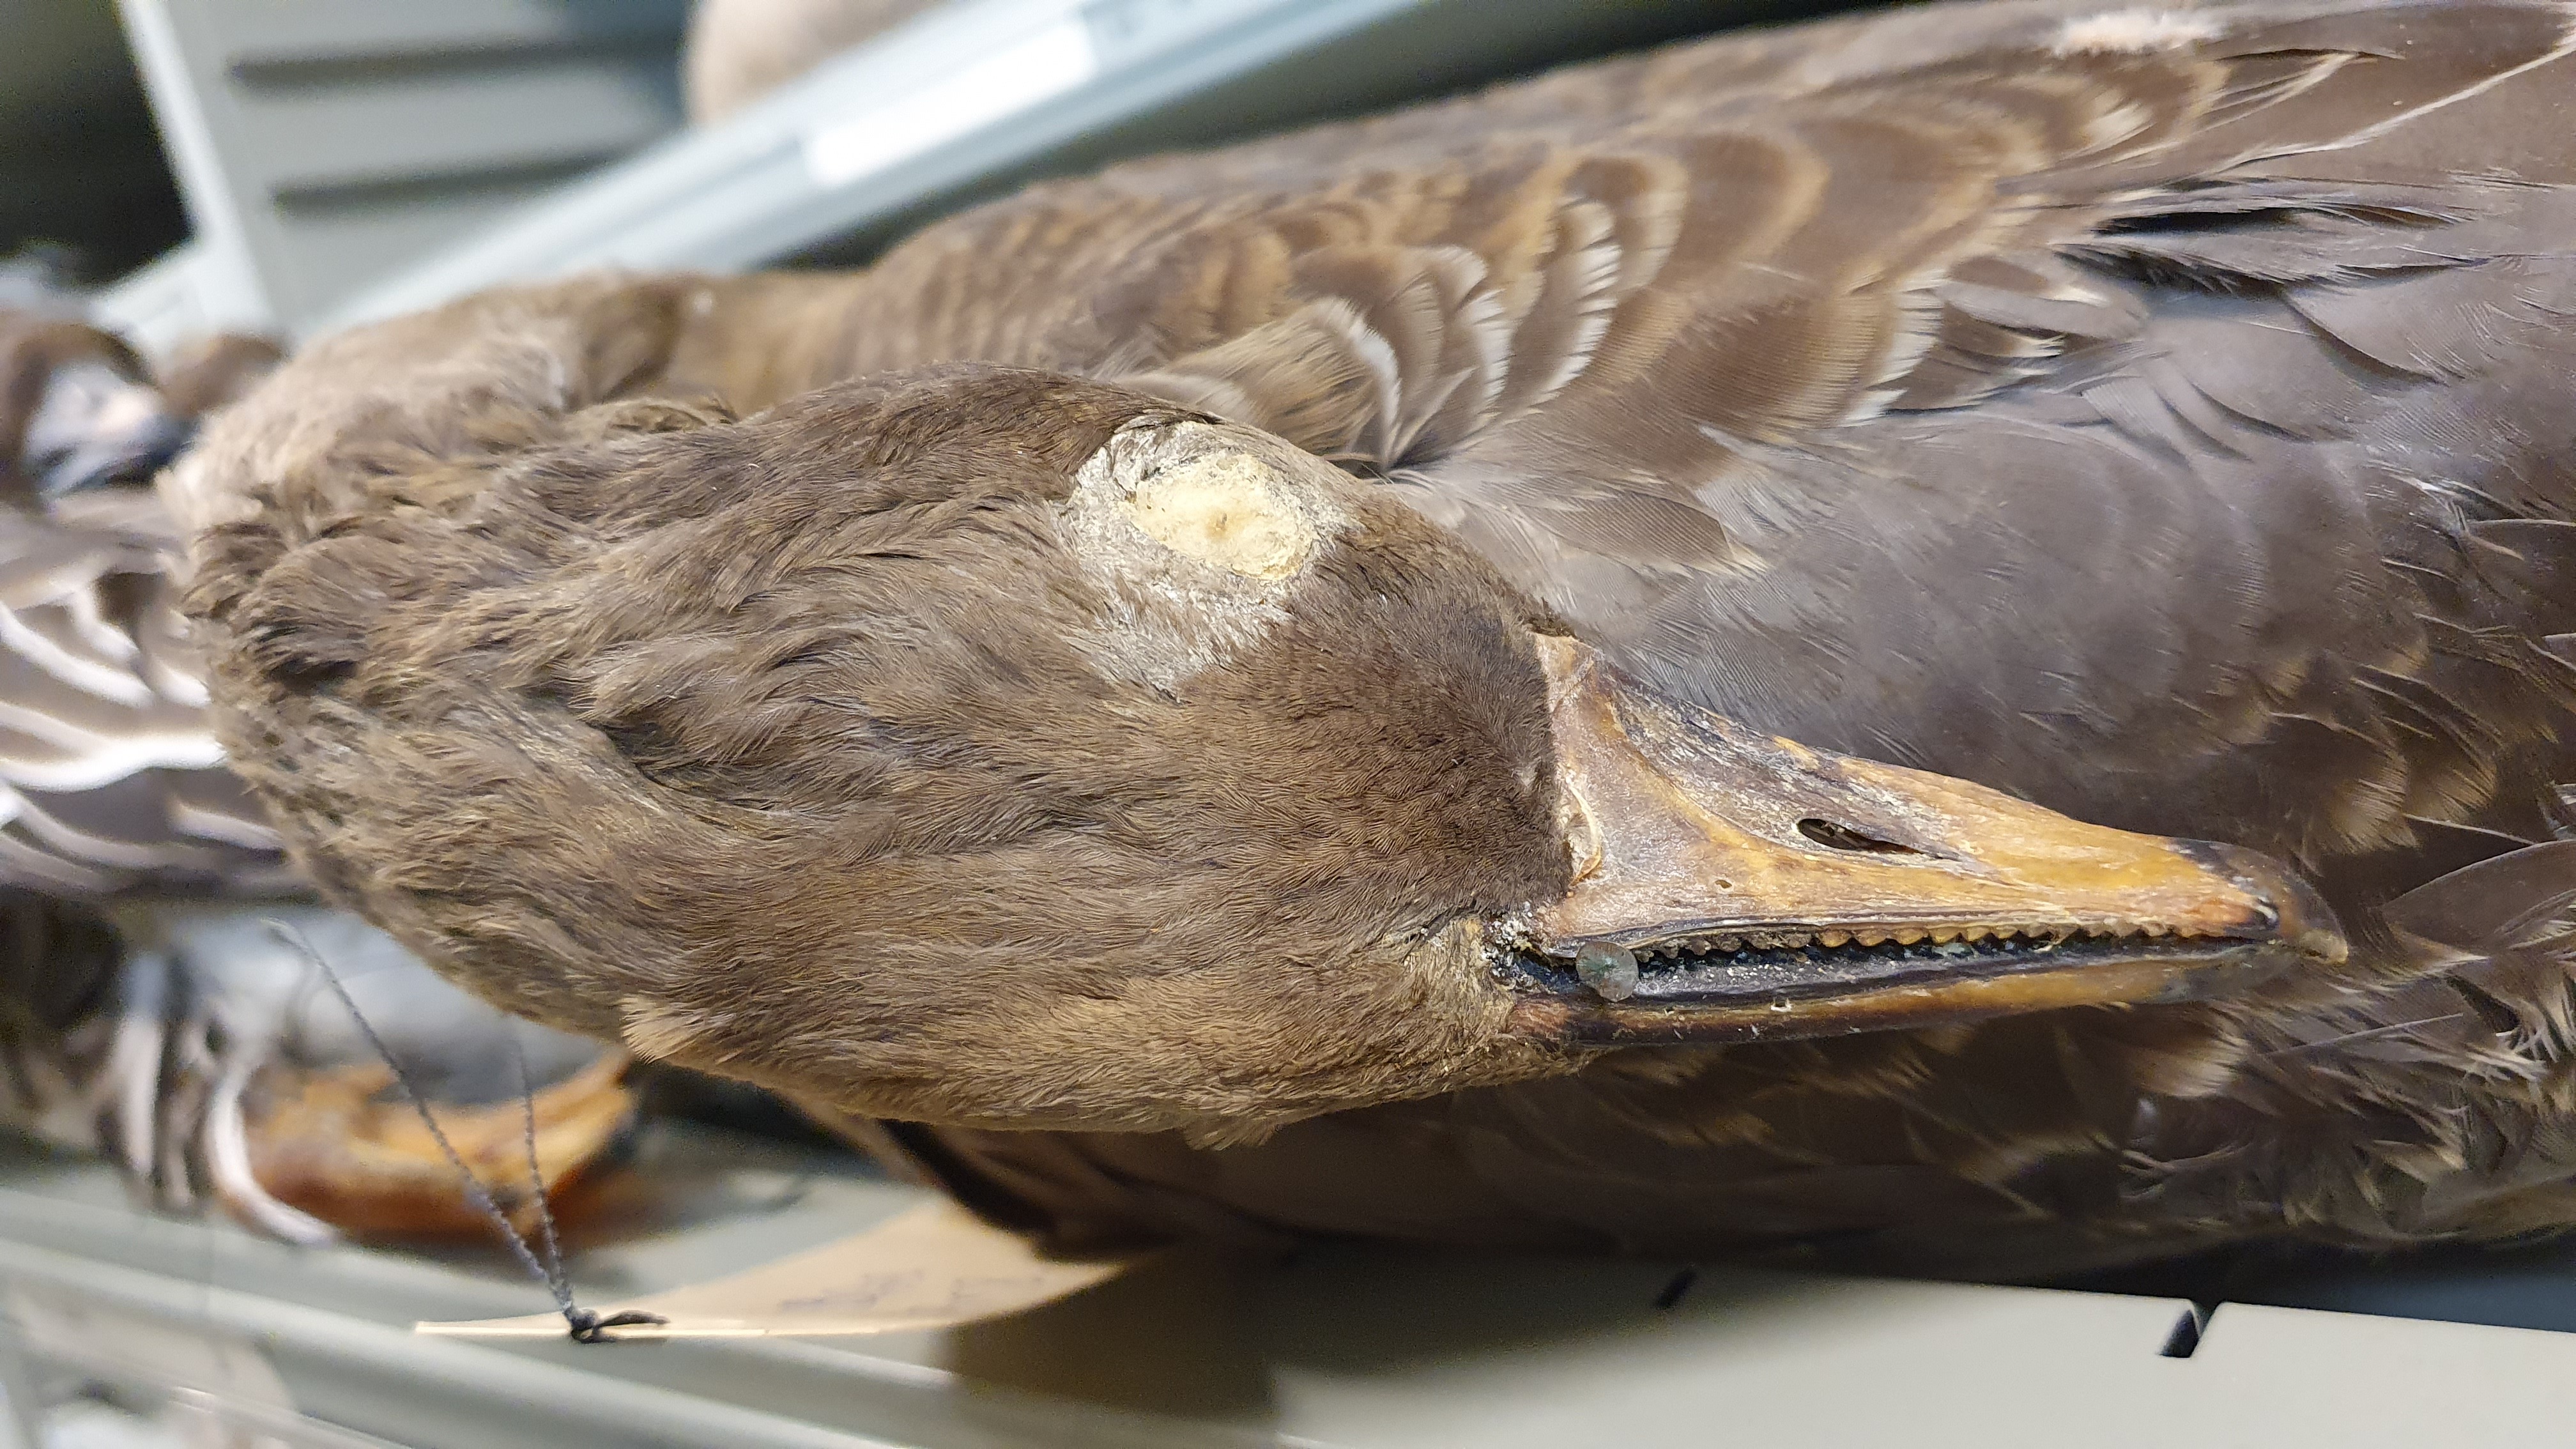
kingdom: Animalia
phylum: Chordata
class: Aves
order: Anseriformes
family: Anatidae
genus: Anser
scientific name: Anser fabalis
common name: Bean goose
